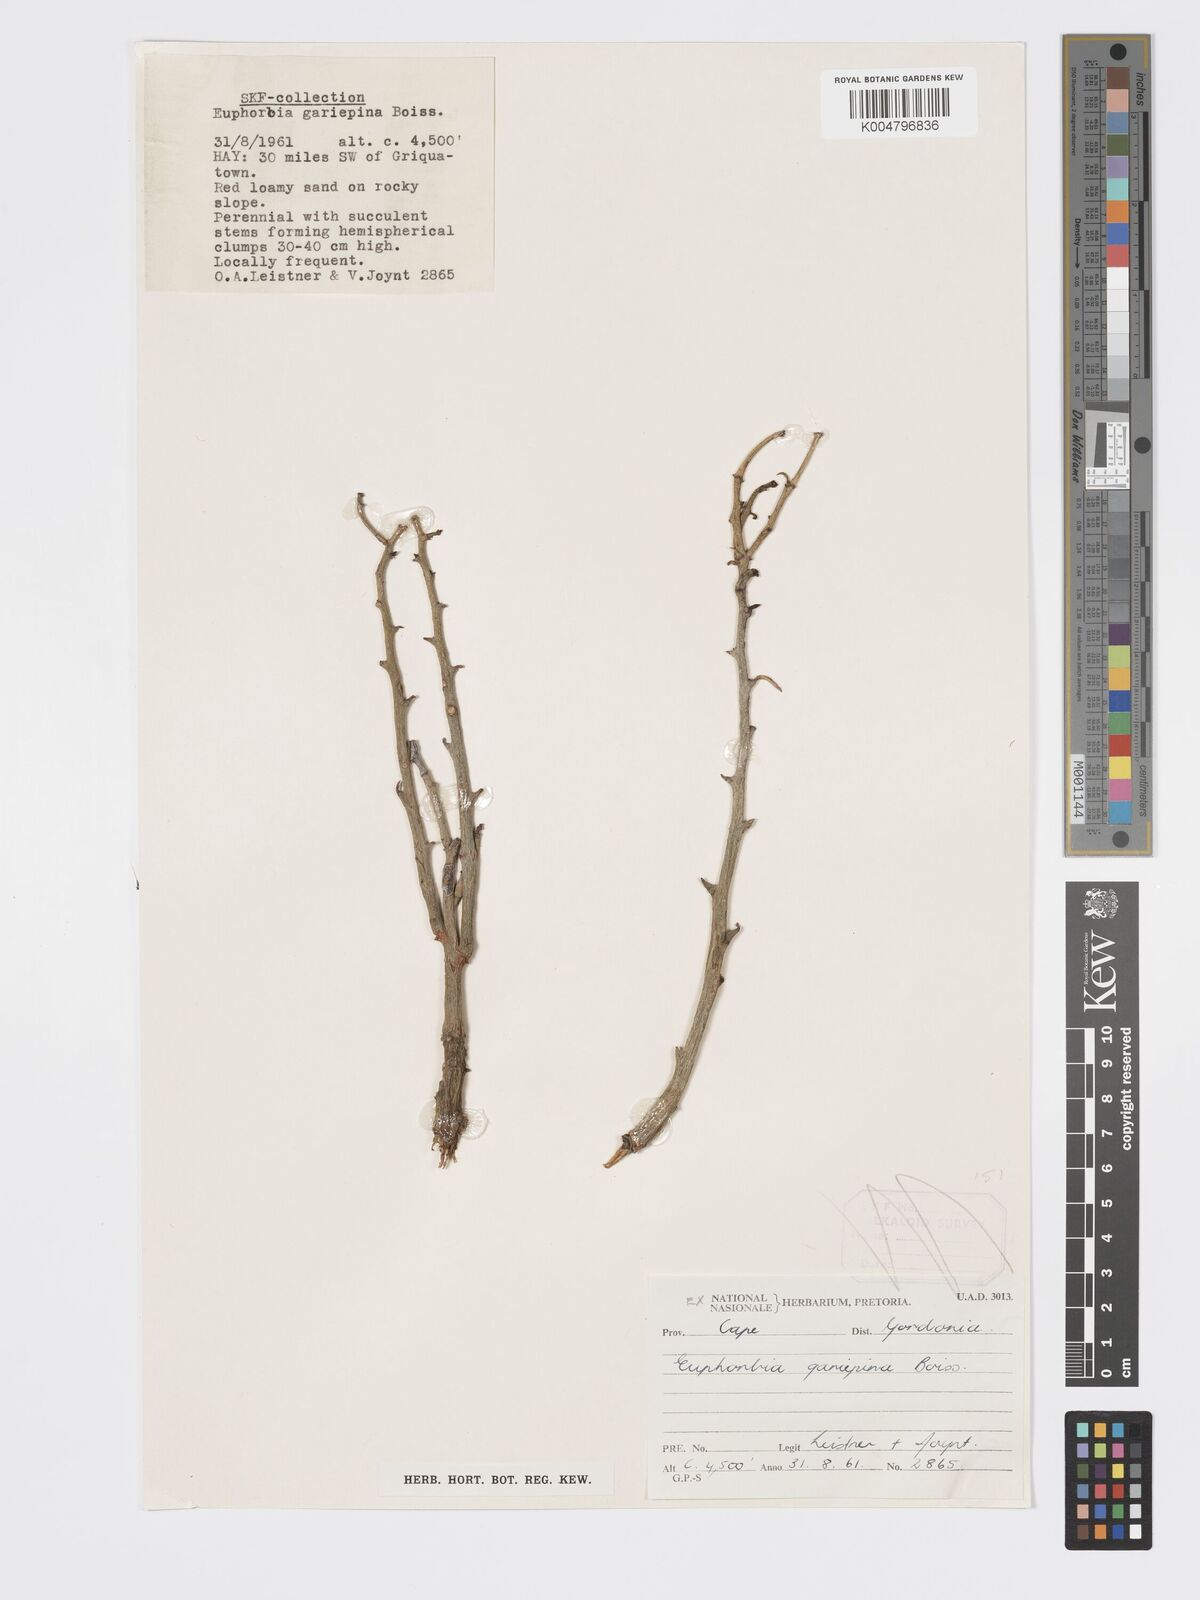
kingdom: Plantae
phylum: Tracheophyta
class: Magnoliopsida
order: Malpighiales
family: Euphorbiaceae
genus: Euphorbia
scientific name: Euphorbia gariepina
